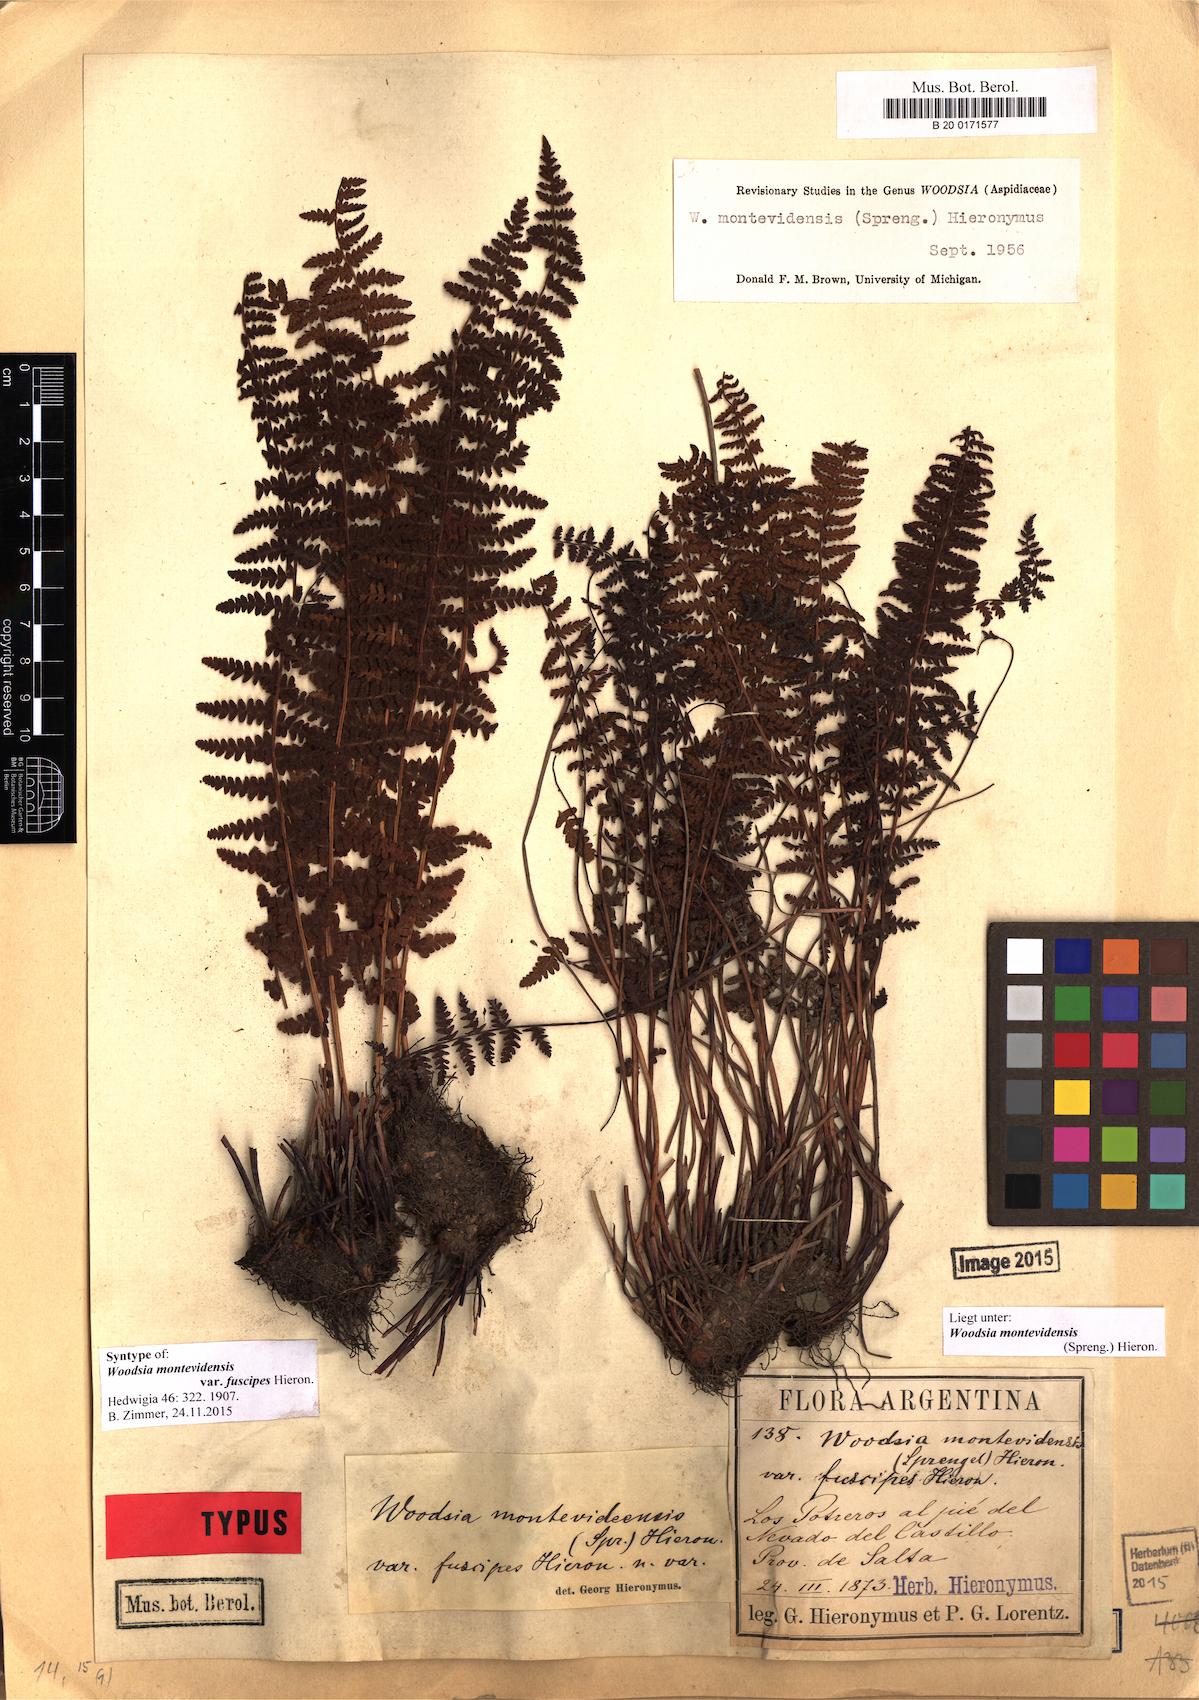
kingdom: Plantae
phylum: Tracheophyta
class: Polypodiopsida
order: Polypodiales
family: Woodsiaceae
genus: Physematium
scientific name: Physematium montevidense
